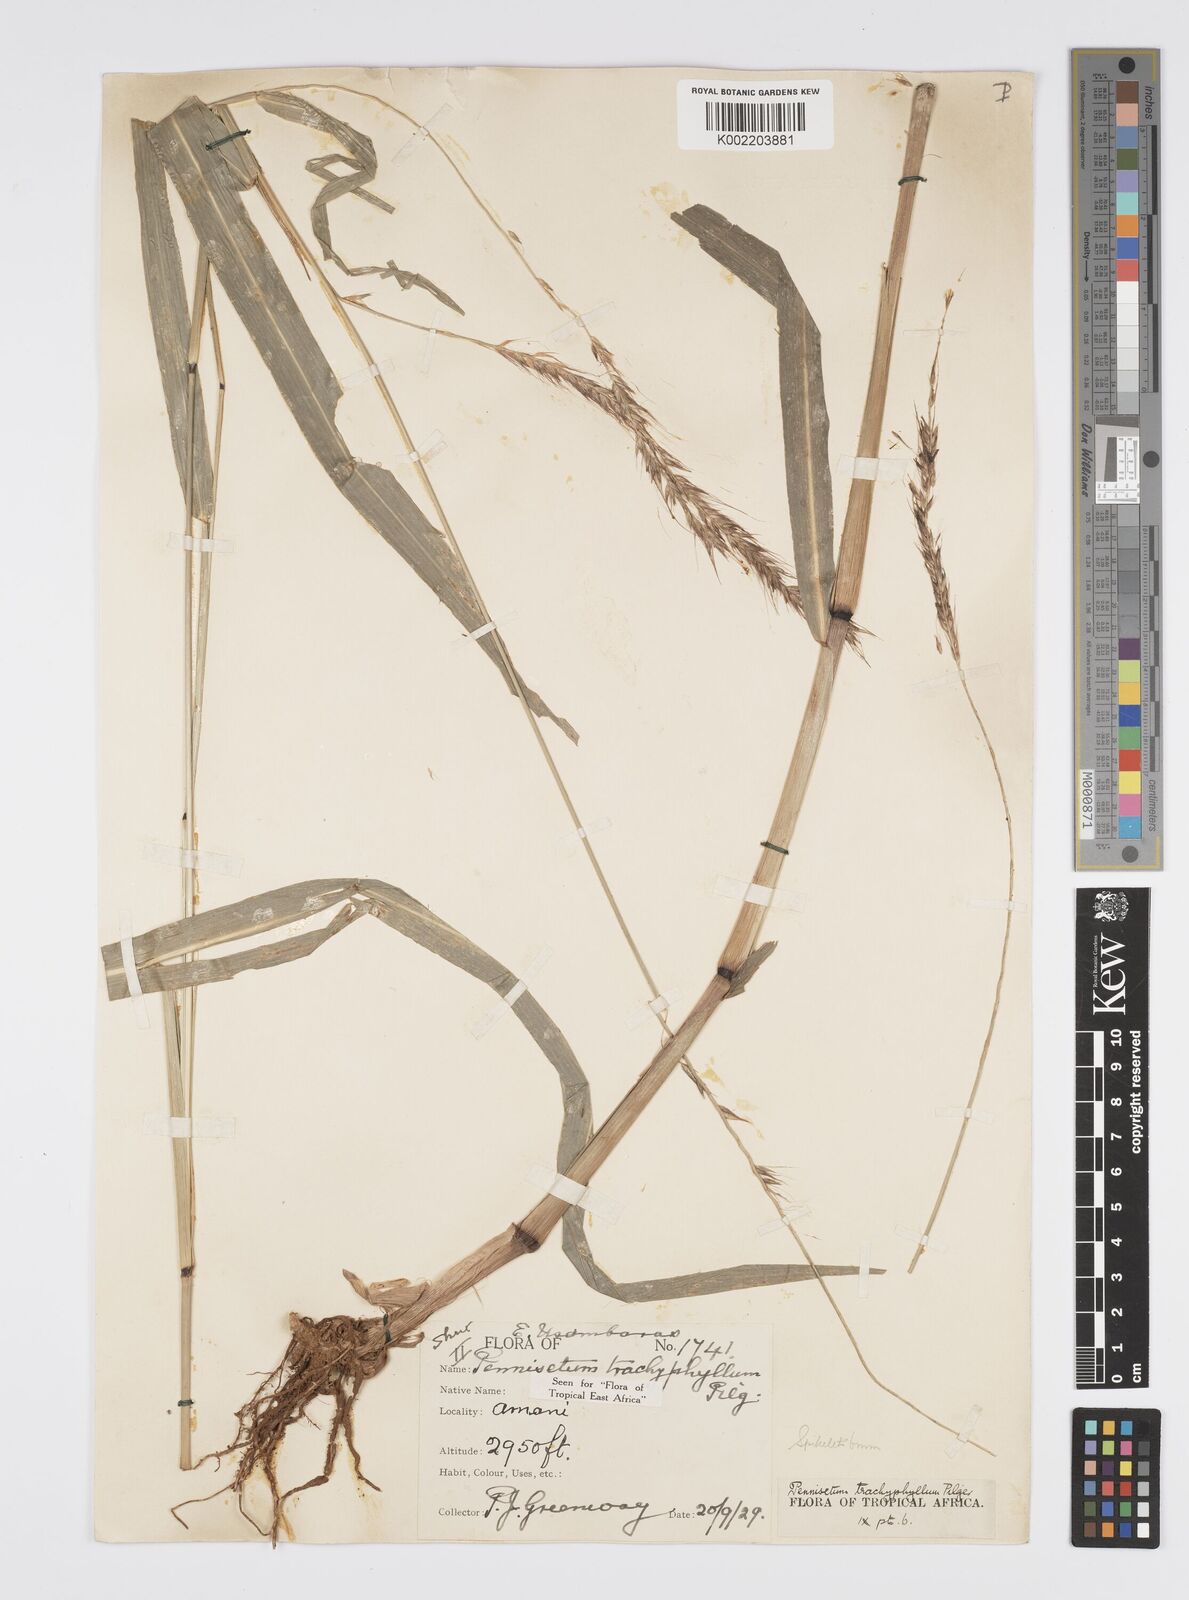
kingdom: Plantae
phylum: Tracheophyta
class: Liliopsida
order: Poales
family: Poaceae
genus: Cenchrus
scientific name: Cenchrus trachyphyllus
